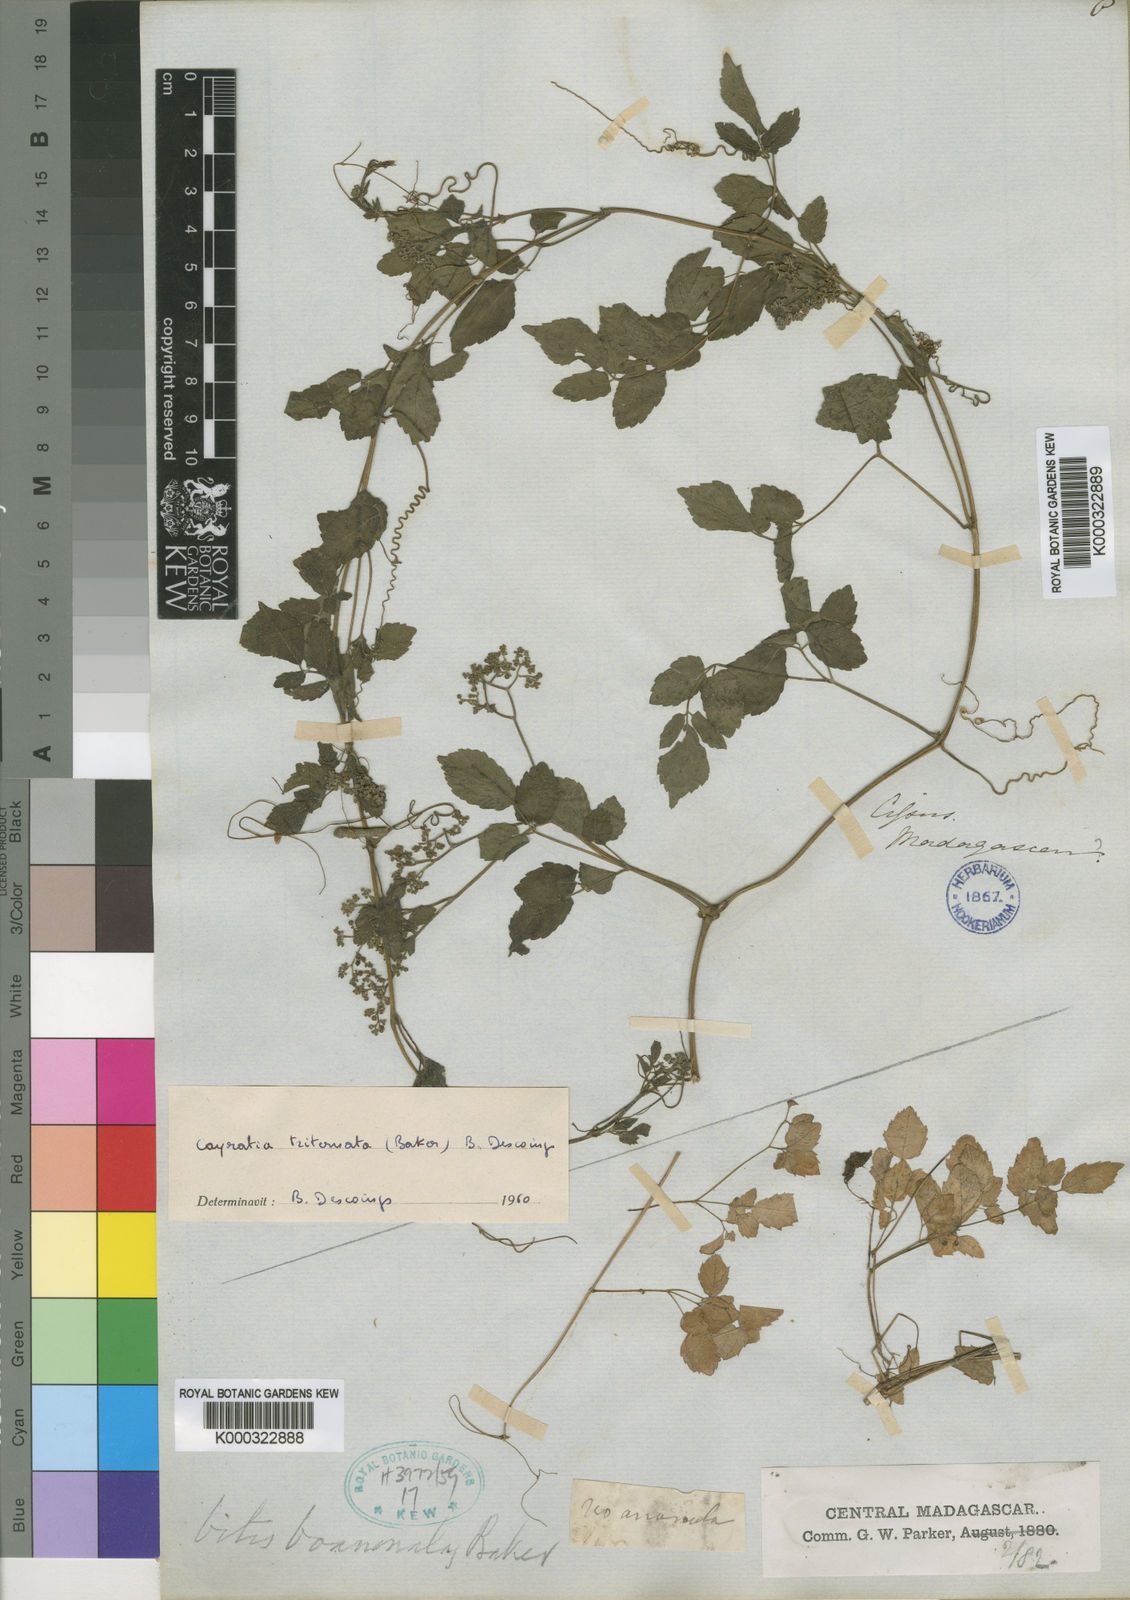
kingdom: Plantae
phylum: Tracheophyta
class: Magnoliopsida
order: Vitales
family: Vitaceae
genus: Afrocayratia
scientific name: Afrocayratia triternata
